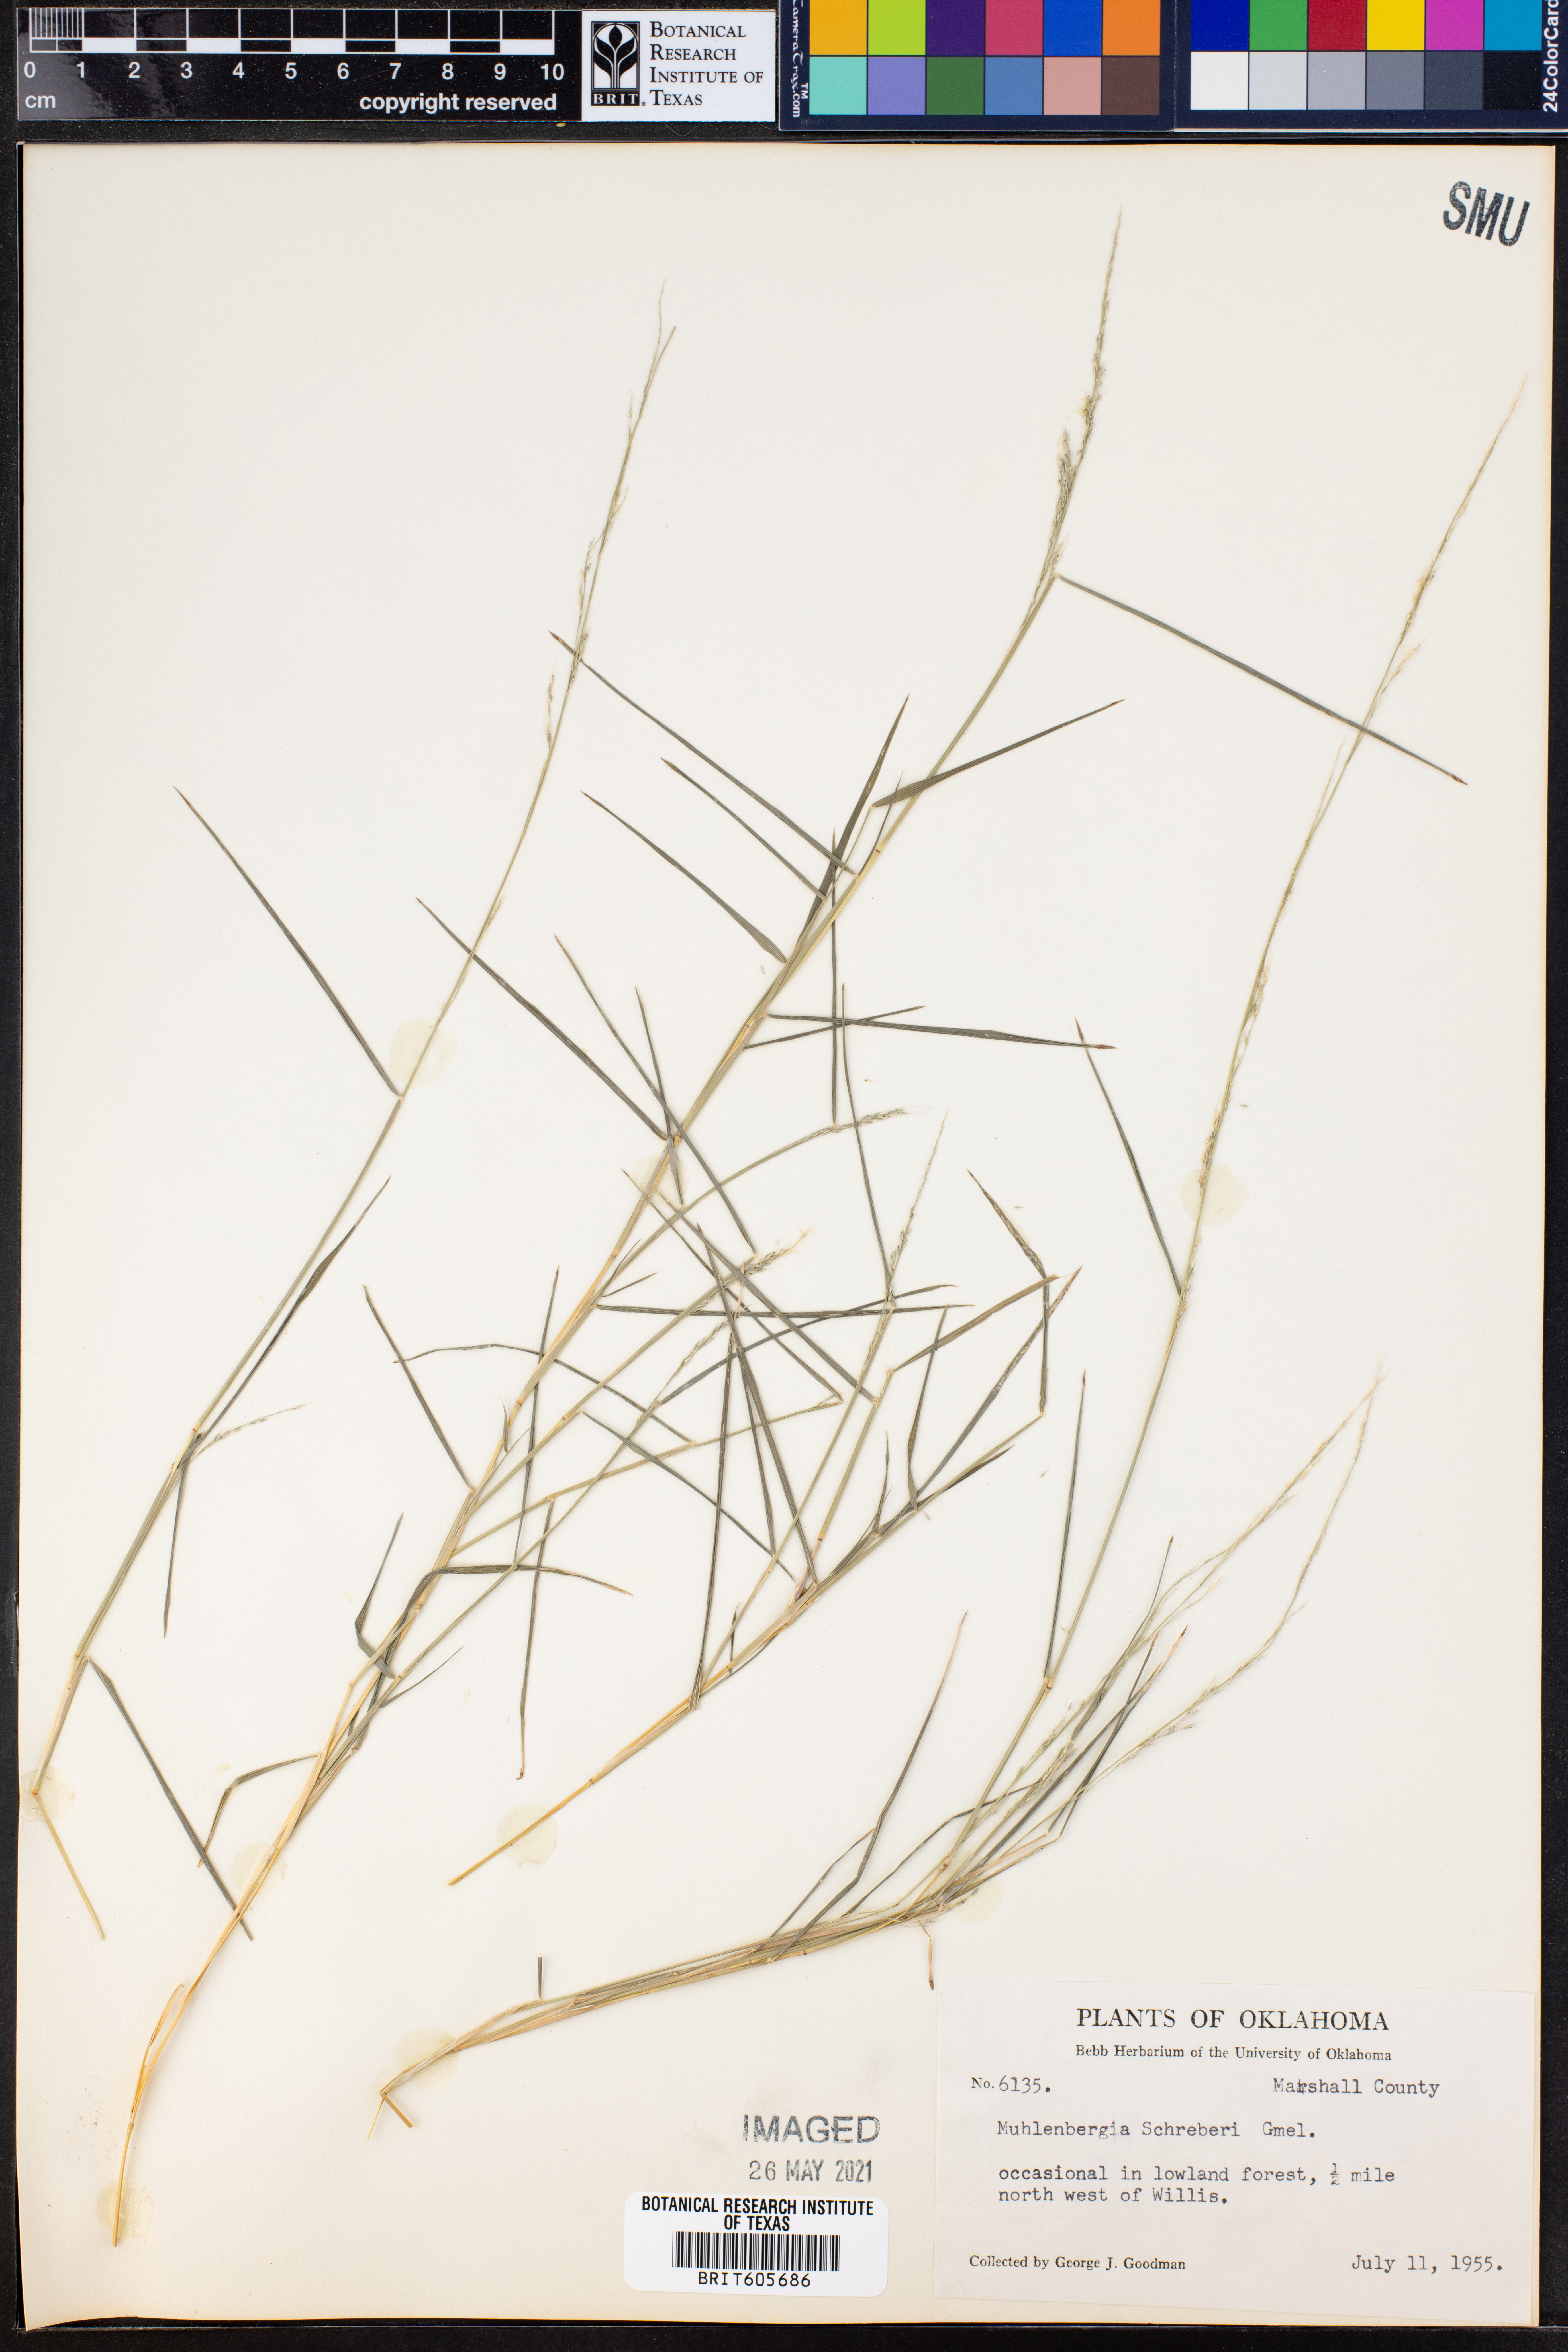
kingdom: Plantae
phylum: Tracheophyta
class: Liliopsida
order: Poales
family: Poaceae
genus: Muhlenbergia
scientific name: Muhlenbergia schreberi
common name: Nimblewill
